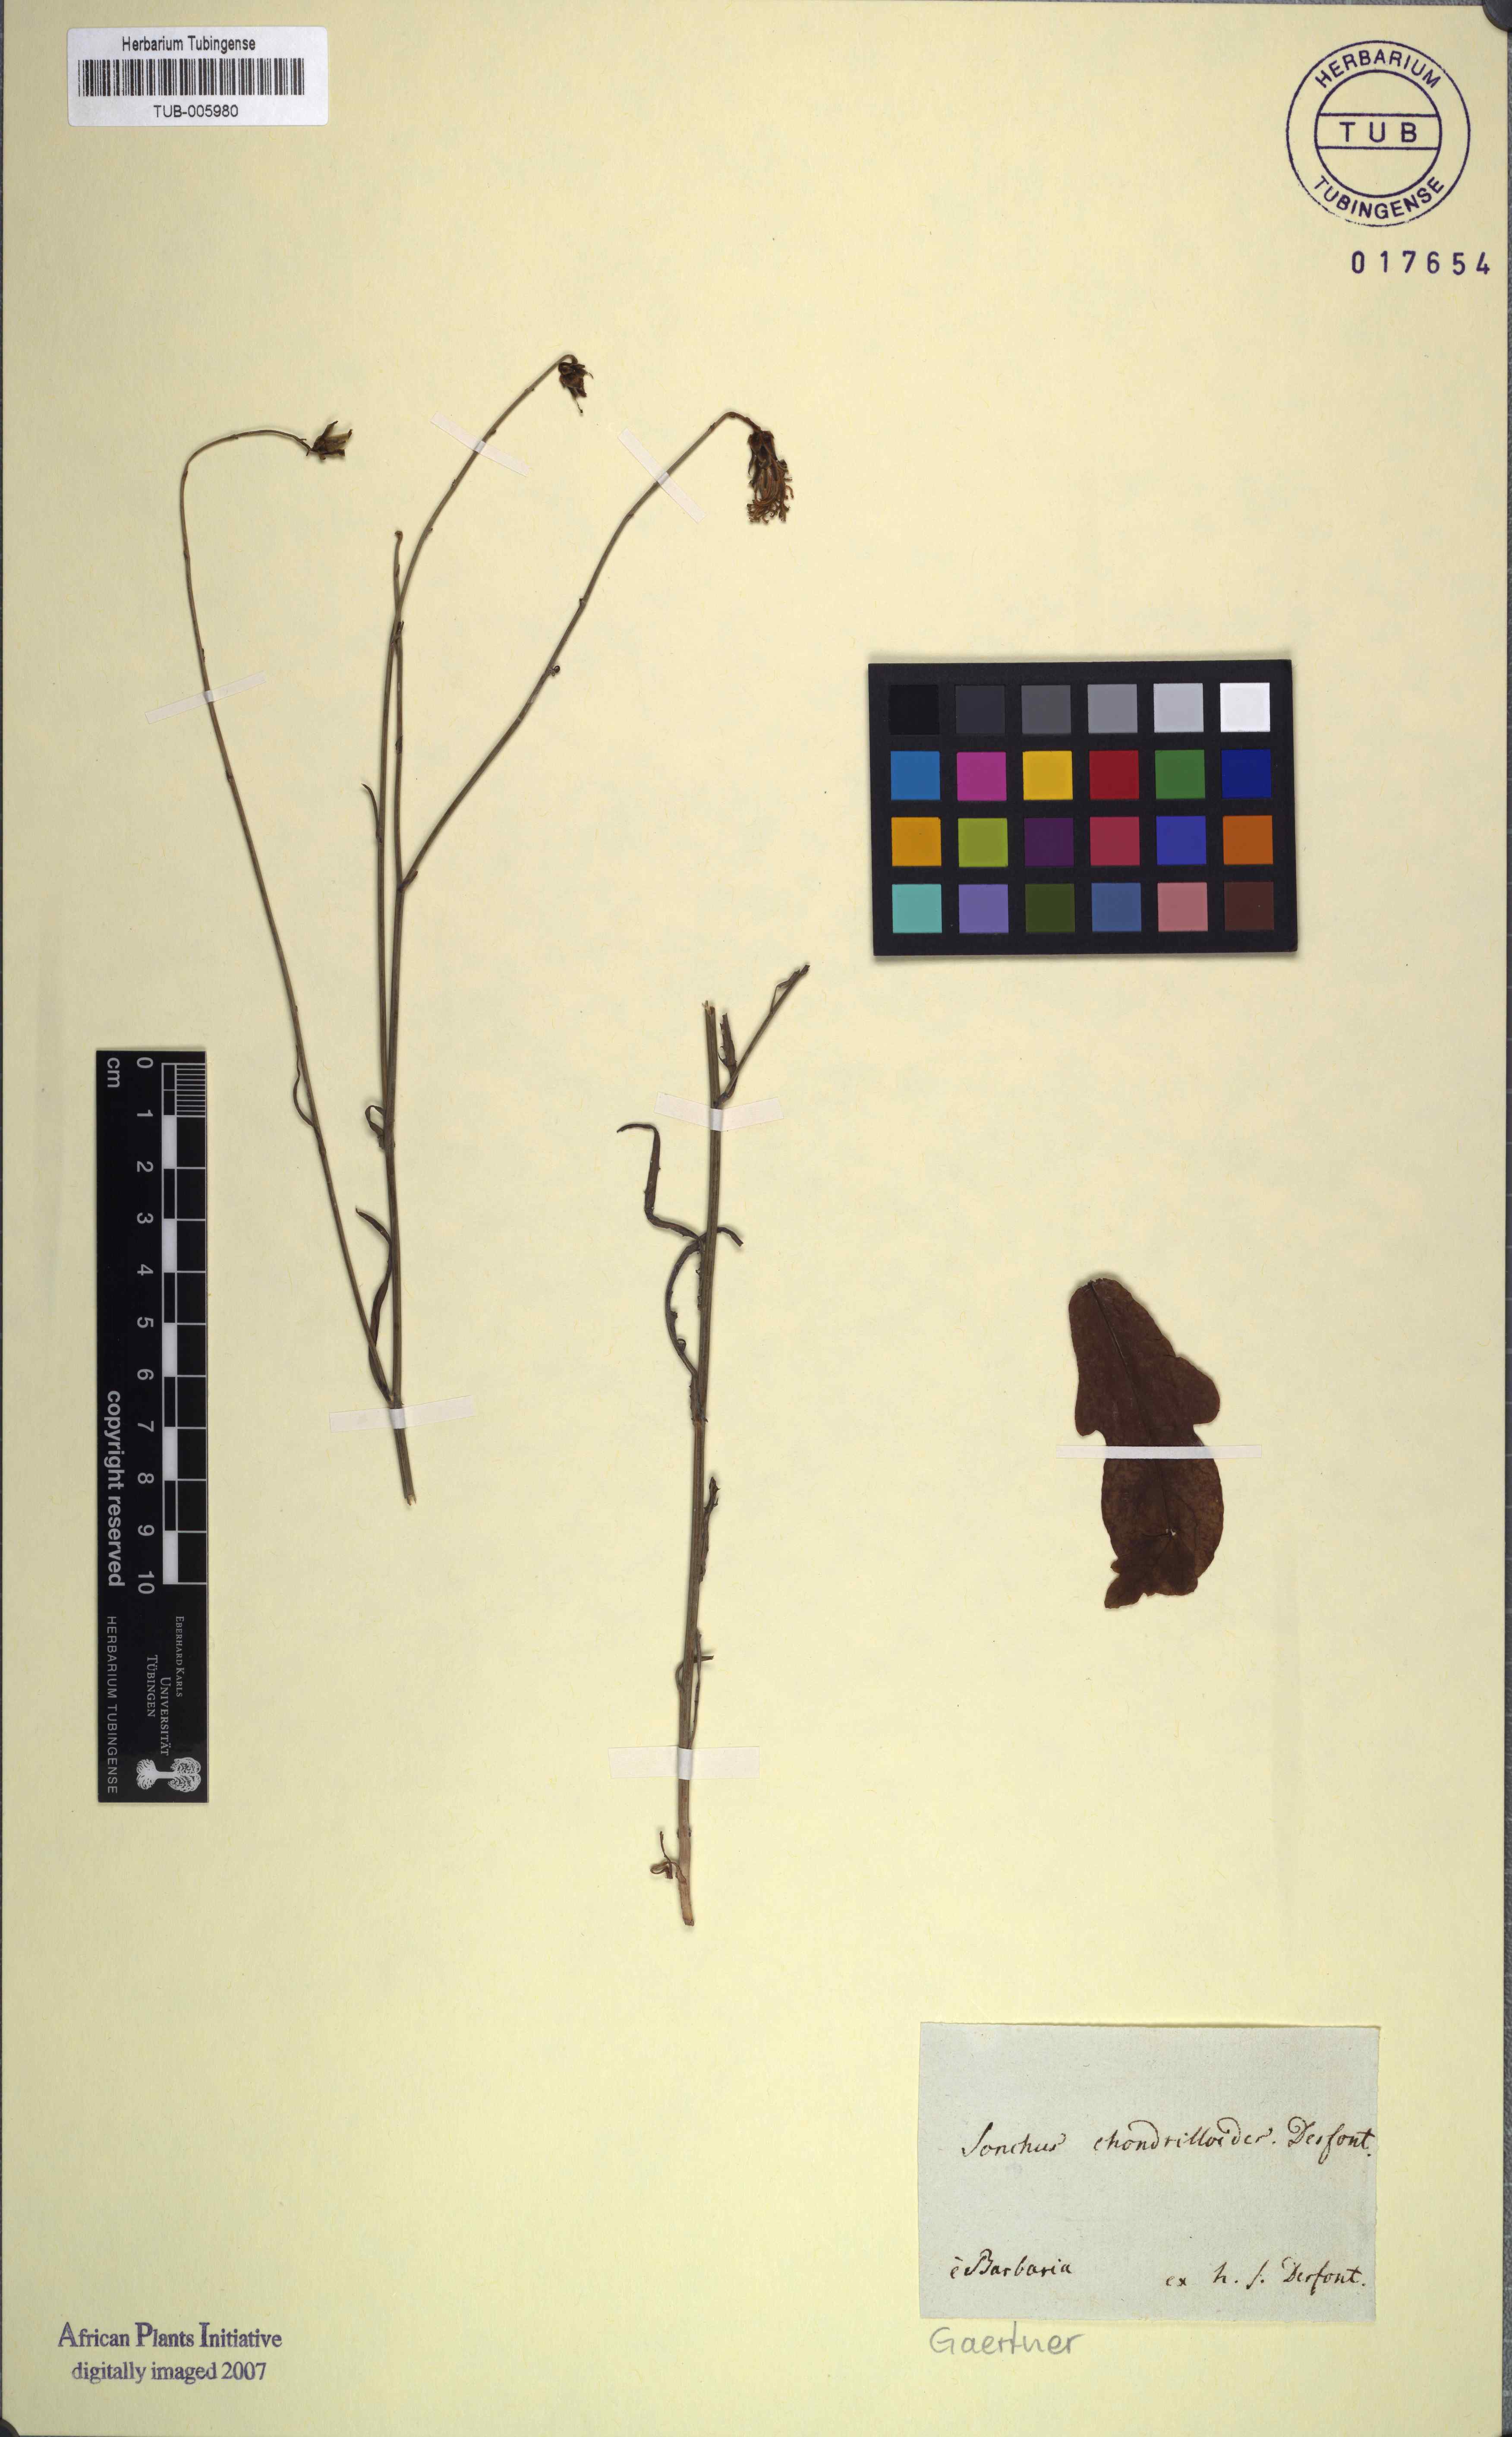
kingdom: Plantae
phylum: Tracheophyta
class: Magnoliopsida
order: Asterales
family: Asteraceae
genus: Launaea
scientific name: Launaea fragilis
